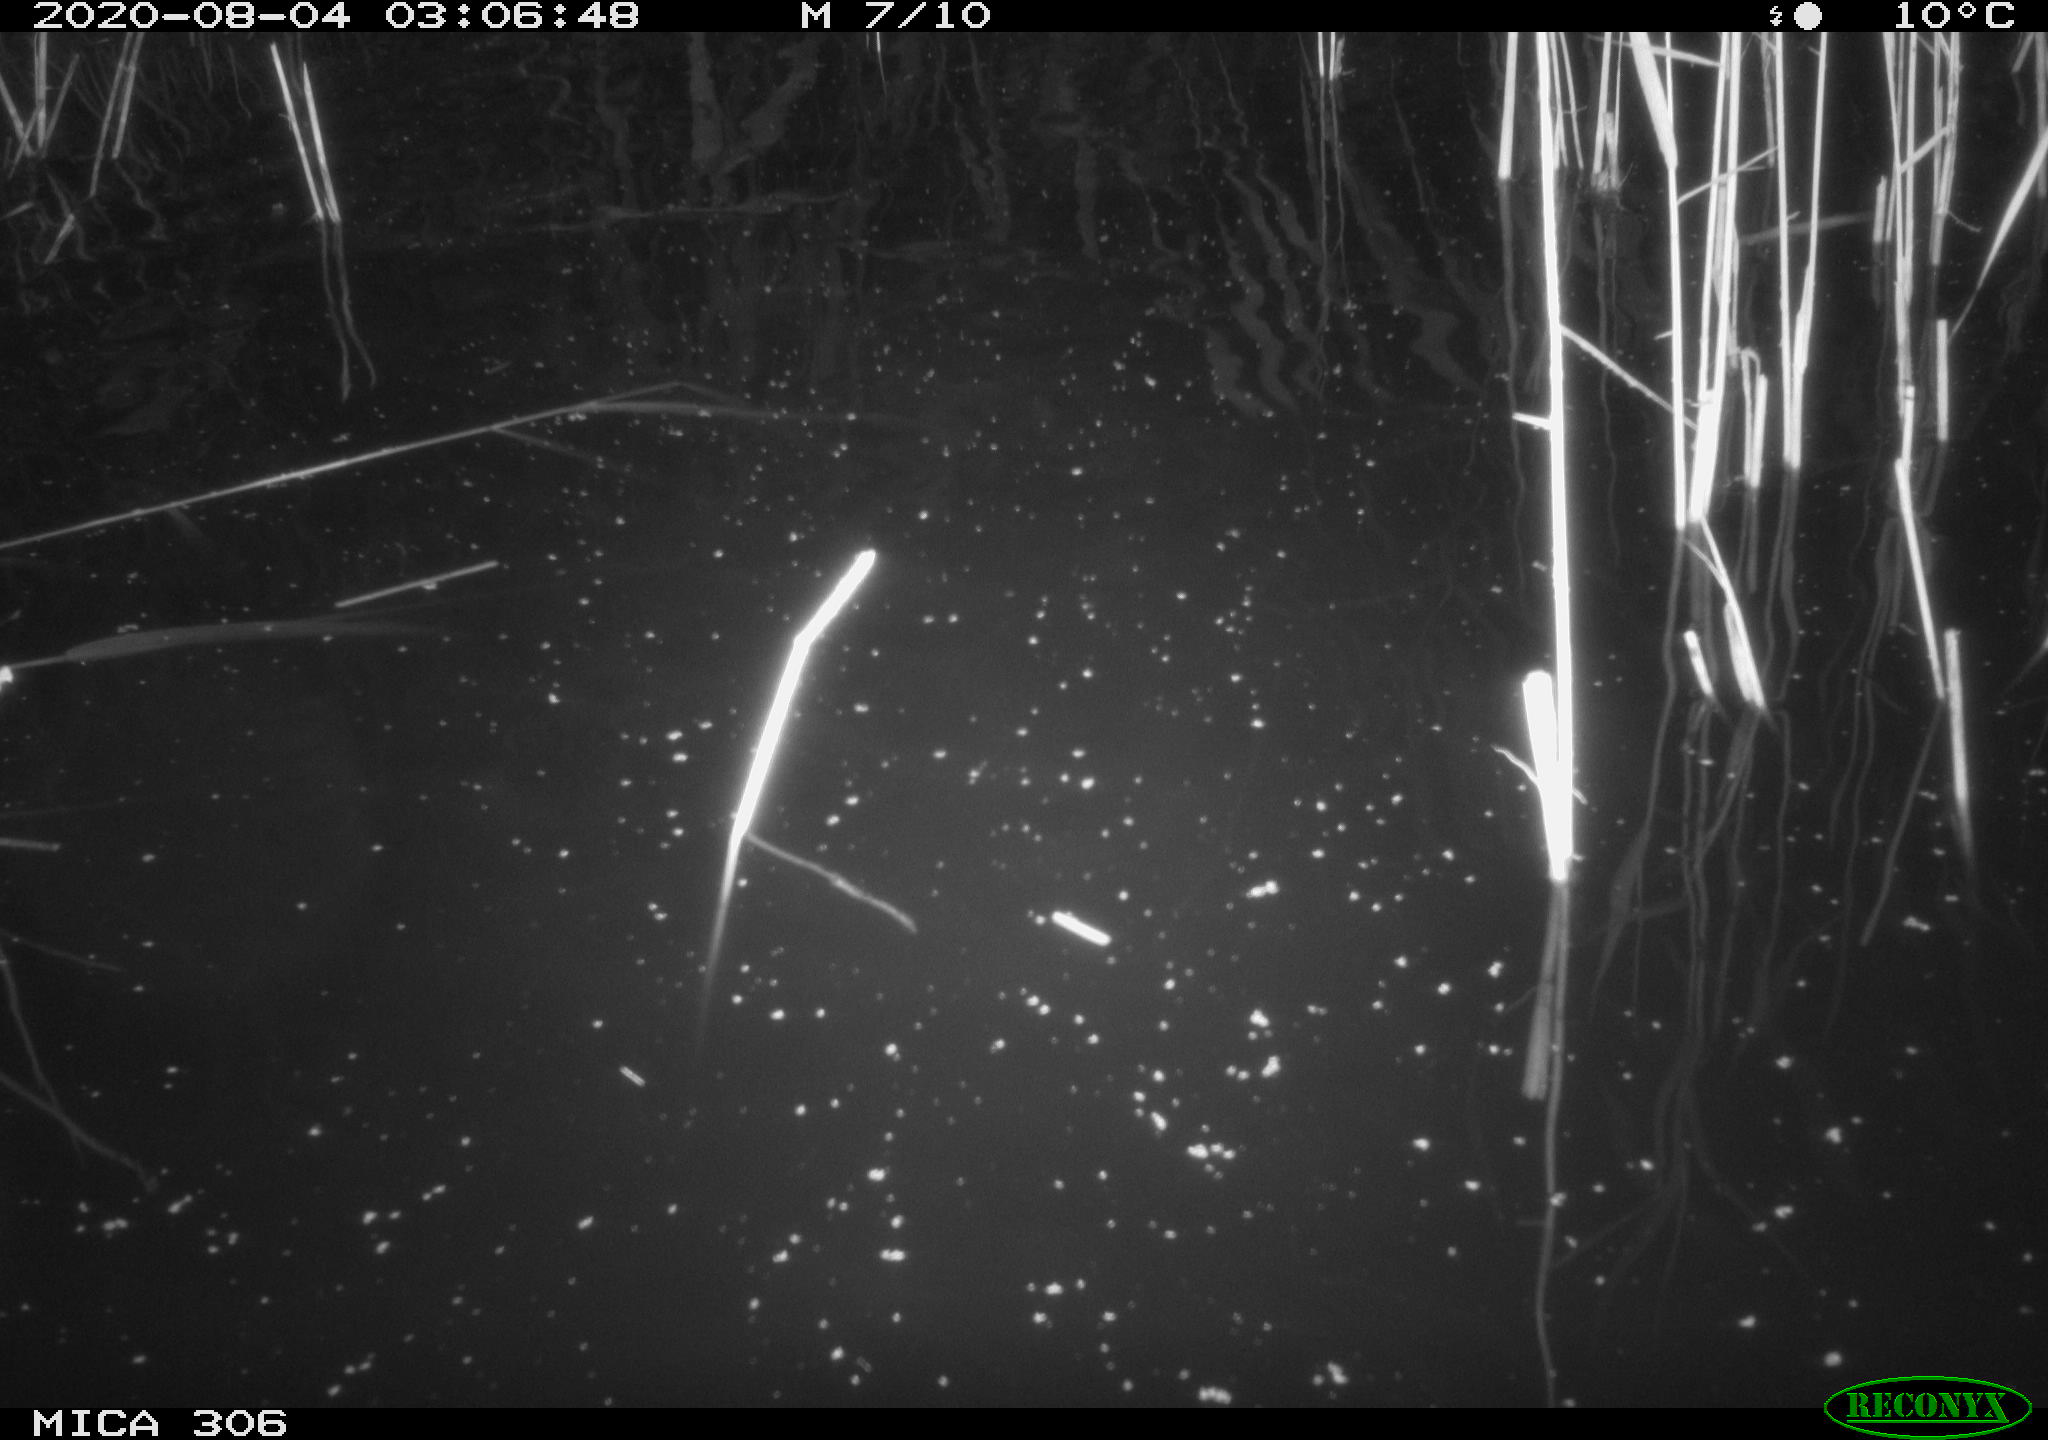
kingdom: Animalia
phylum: Chordata
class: Mammalia
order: Rodentia
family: Muridae
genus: Rattus
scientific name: Rattus norvegicus
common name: Brown rat
